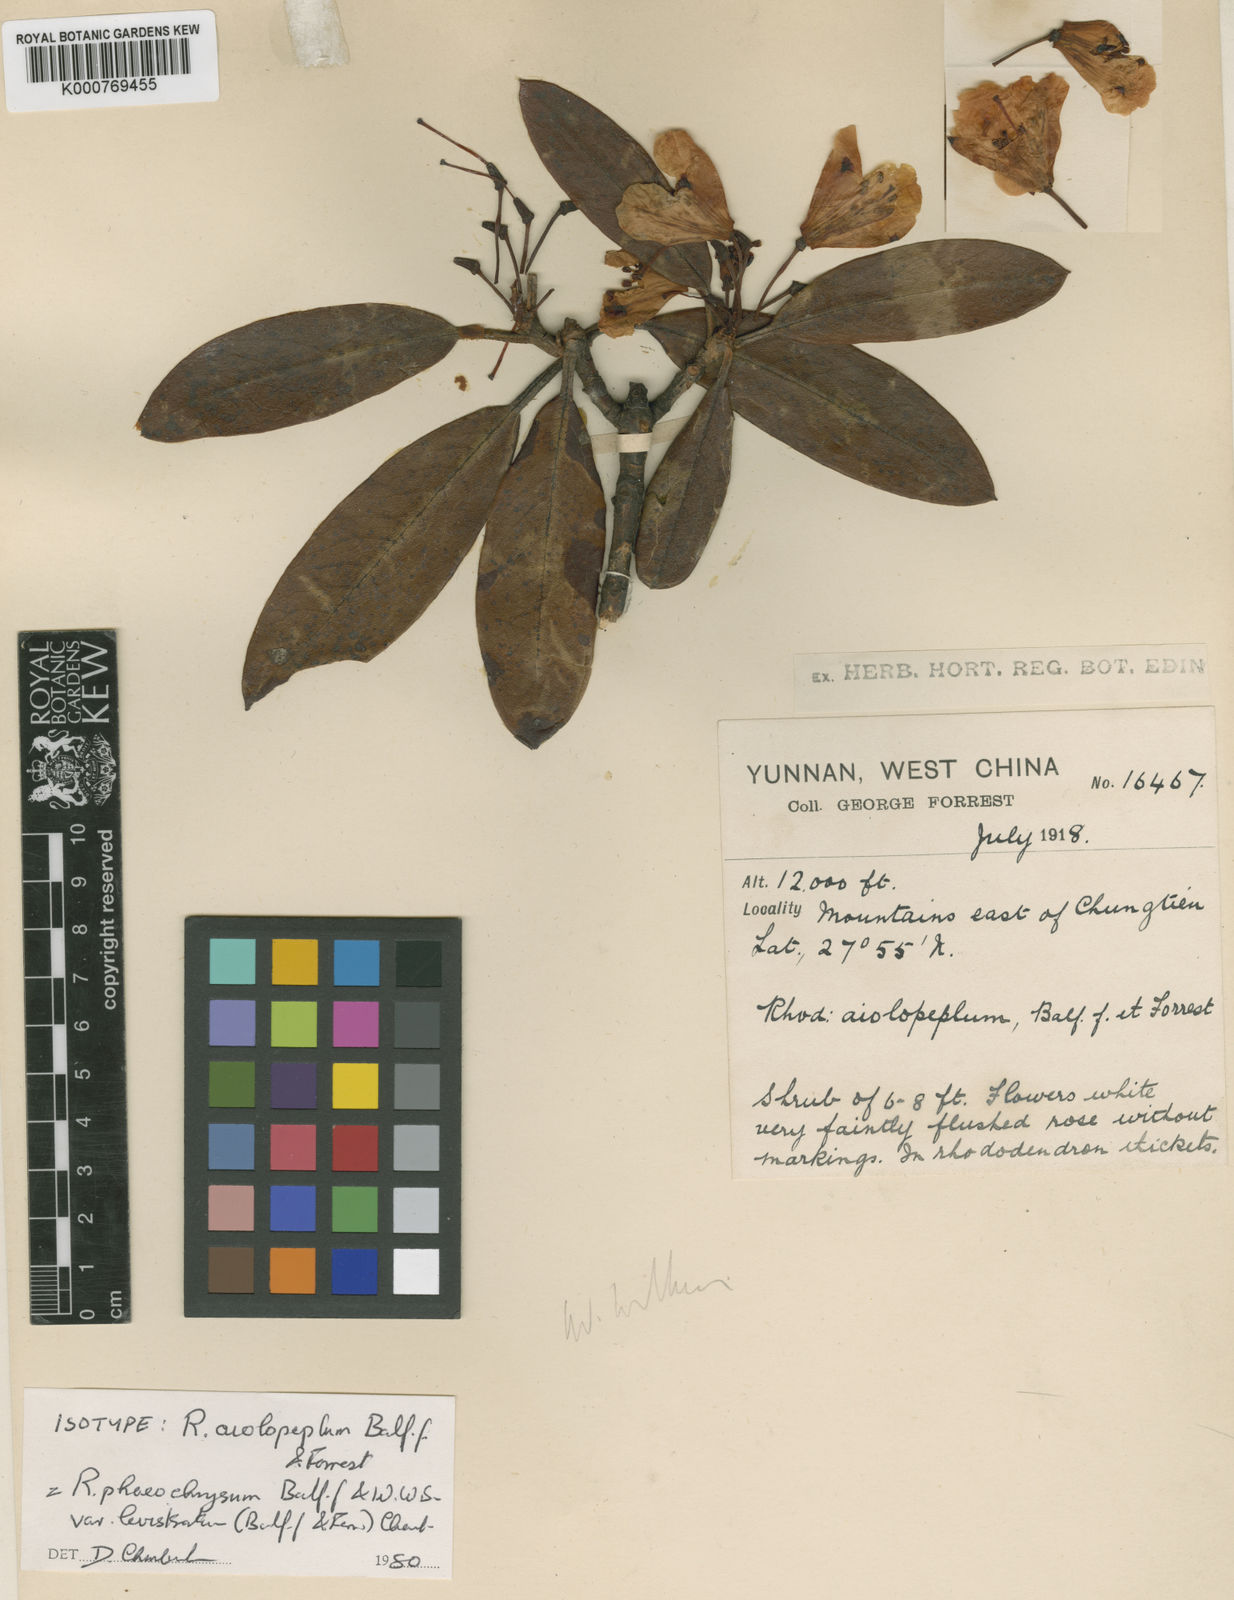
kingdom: Plantae
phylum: Tracheophyta
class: Magnoliopsida
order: Ericales
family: Ericaceae
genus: Rhododendron
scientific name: Rhododendron phaeochrysum
